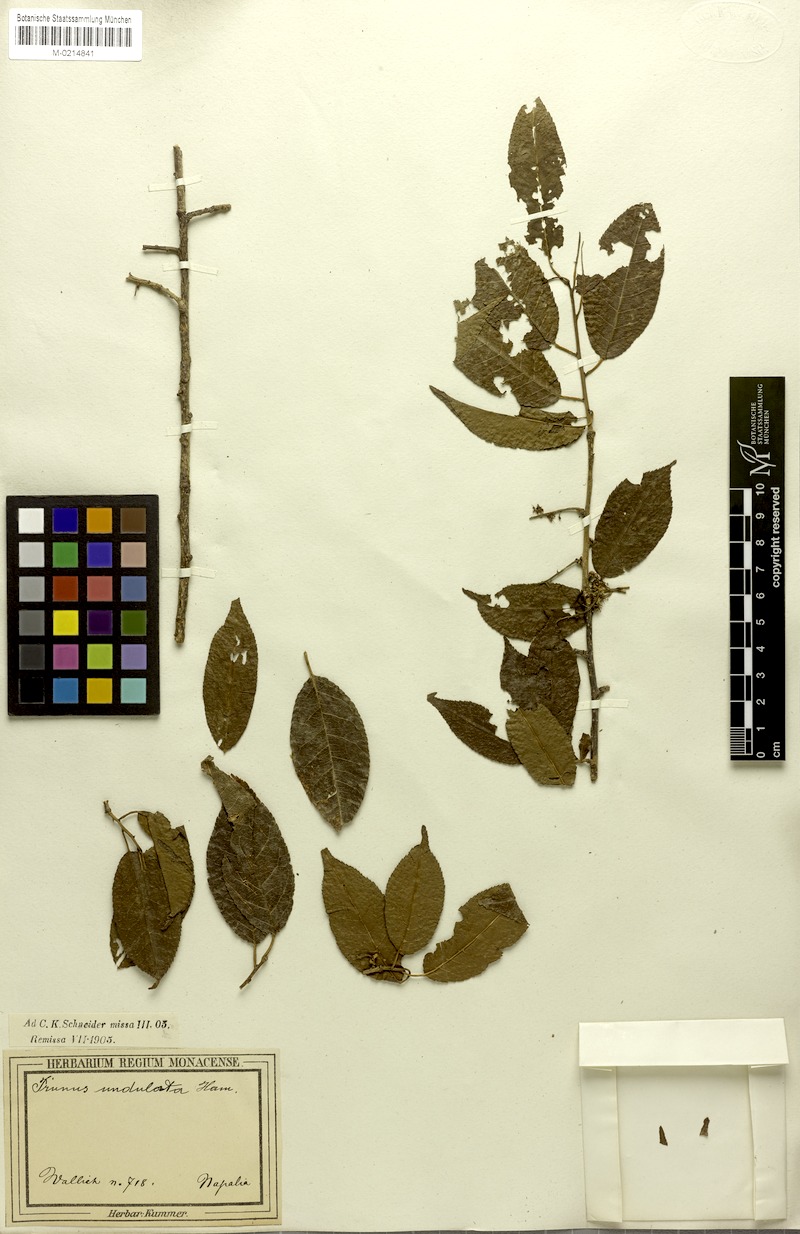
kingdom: Plantae
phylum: Tracheophyta
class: Magnoliopsida
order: Rosales
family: Rosaceae
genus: Prunus
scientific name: Prunus buergeriana
